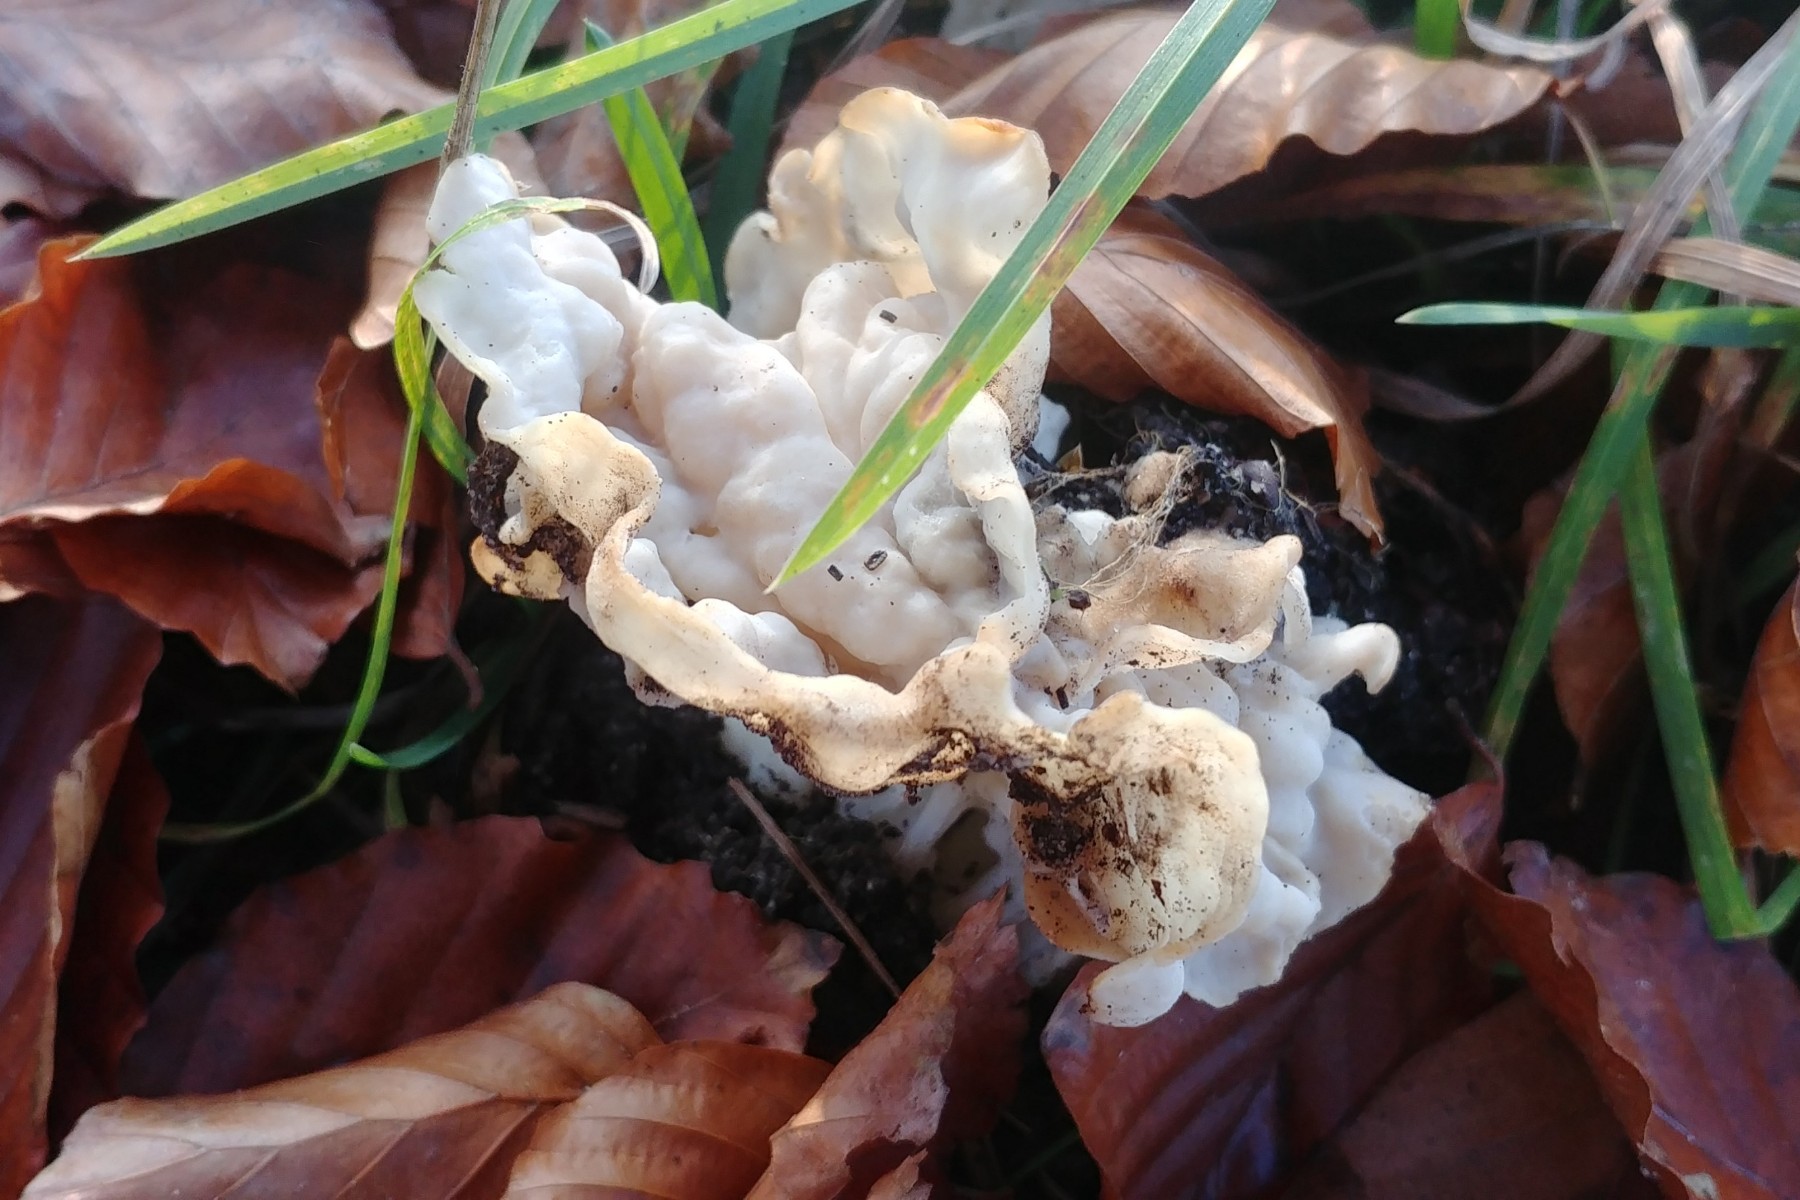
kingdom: Fungi
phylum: Ascomycota
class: Pezizomycetes
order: Pezizales
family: Helvellaceae
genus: Helvella
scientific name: Helvella crispa
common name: kruset foldhat
